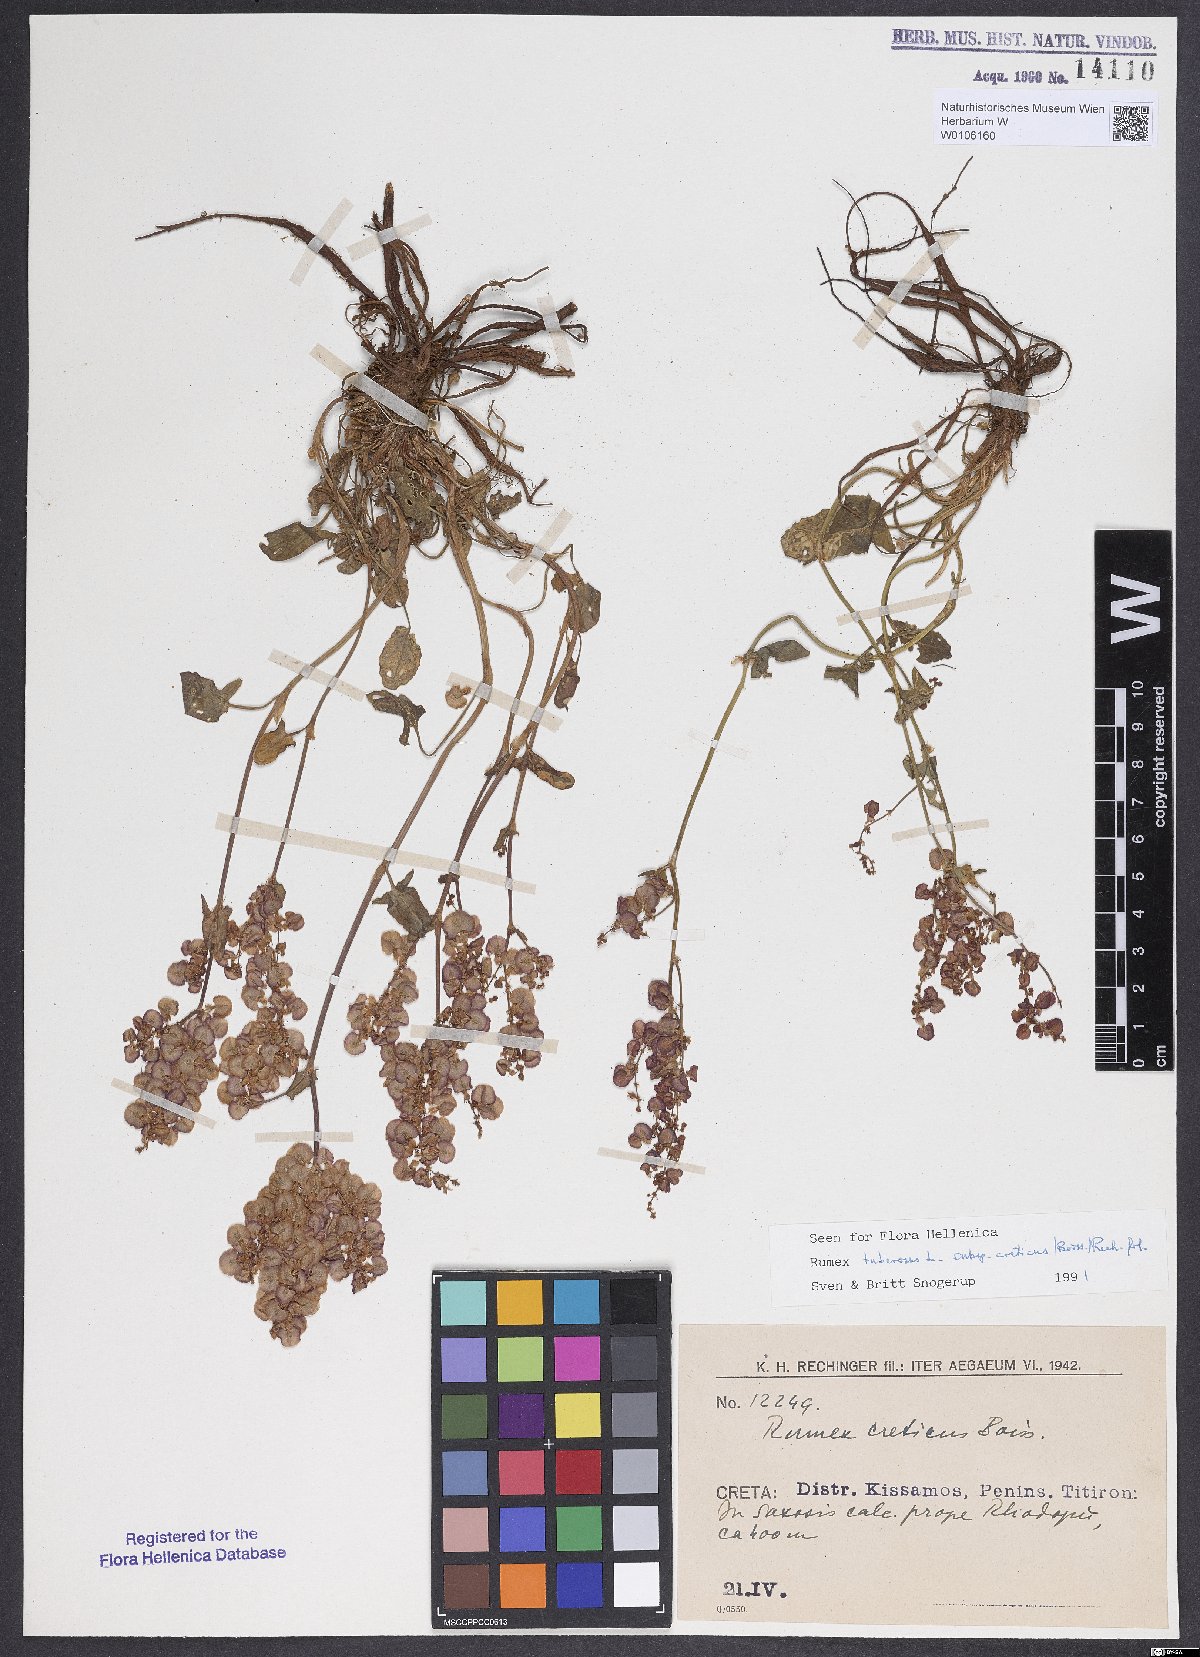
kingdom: Plantae
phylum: Tracheophyta
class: Magnoliopsida
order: Caryophyllales
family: Polygonaceae
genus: Rumex
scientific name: Rumex tuberosus
